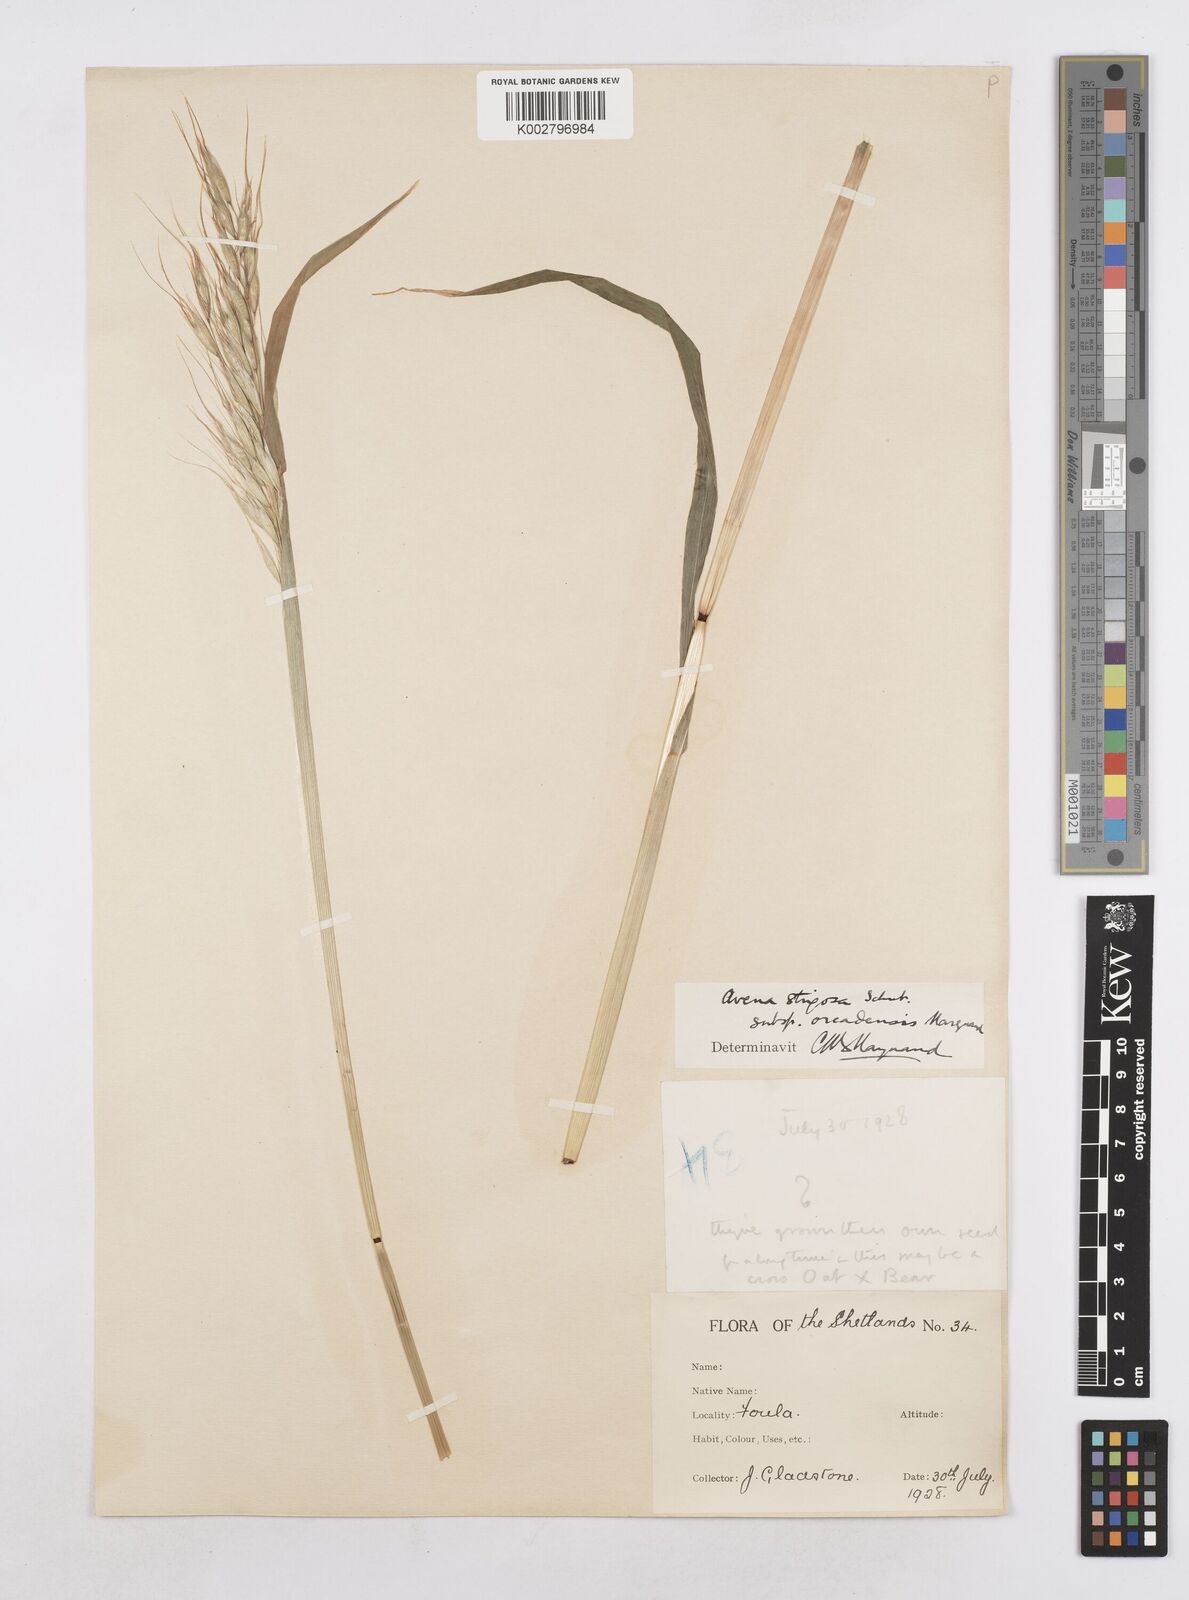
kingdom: Plantae
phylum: Tracheophyta
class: Liliopsida
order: Poales
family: Poaceae
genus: Avena
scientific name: Avena strigosa
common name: Bristle oat
